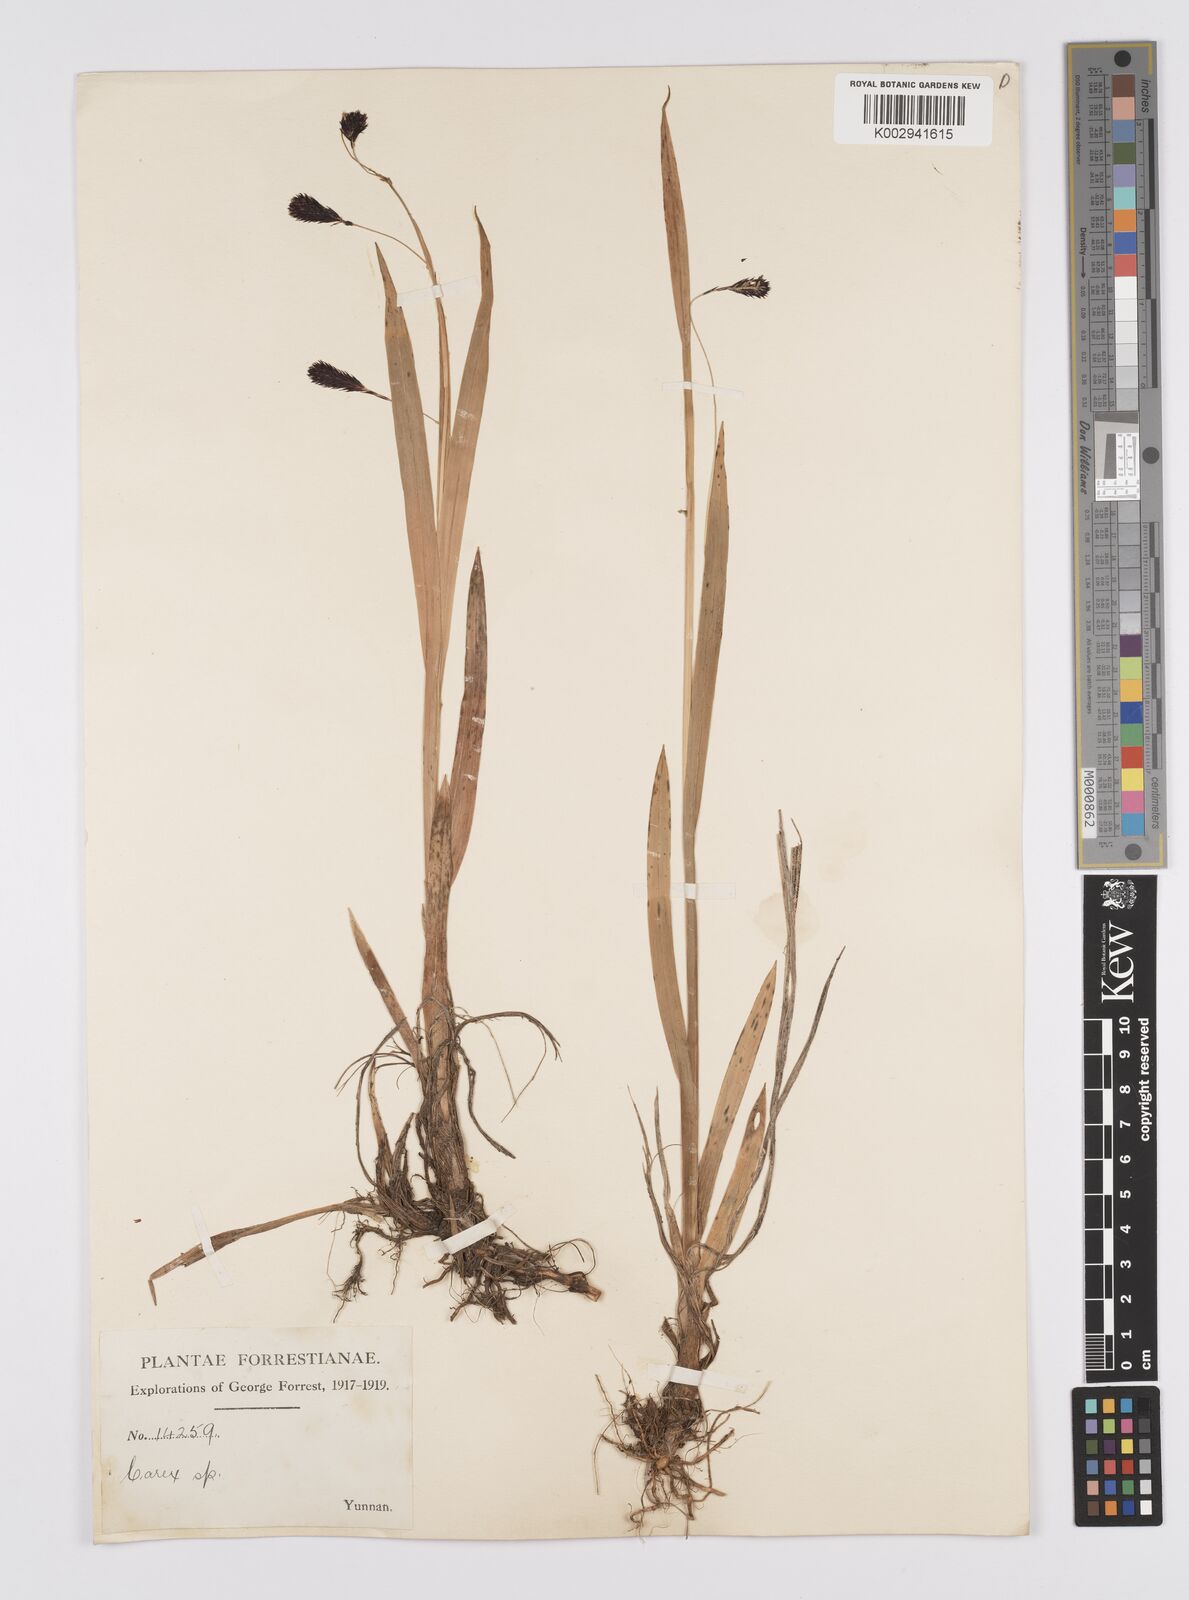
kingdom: Plantae
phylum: Tracheophyta
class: Liliopsida
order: Poales
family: Cyperaceae
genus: Carex
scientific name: Carex cruenta
